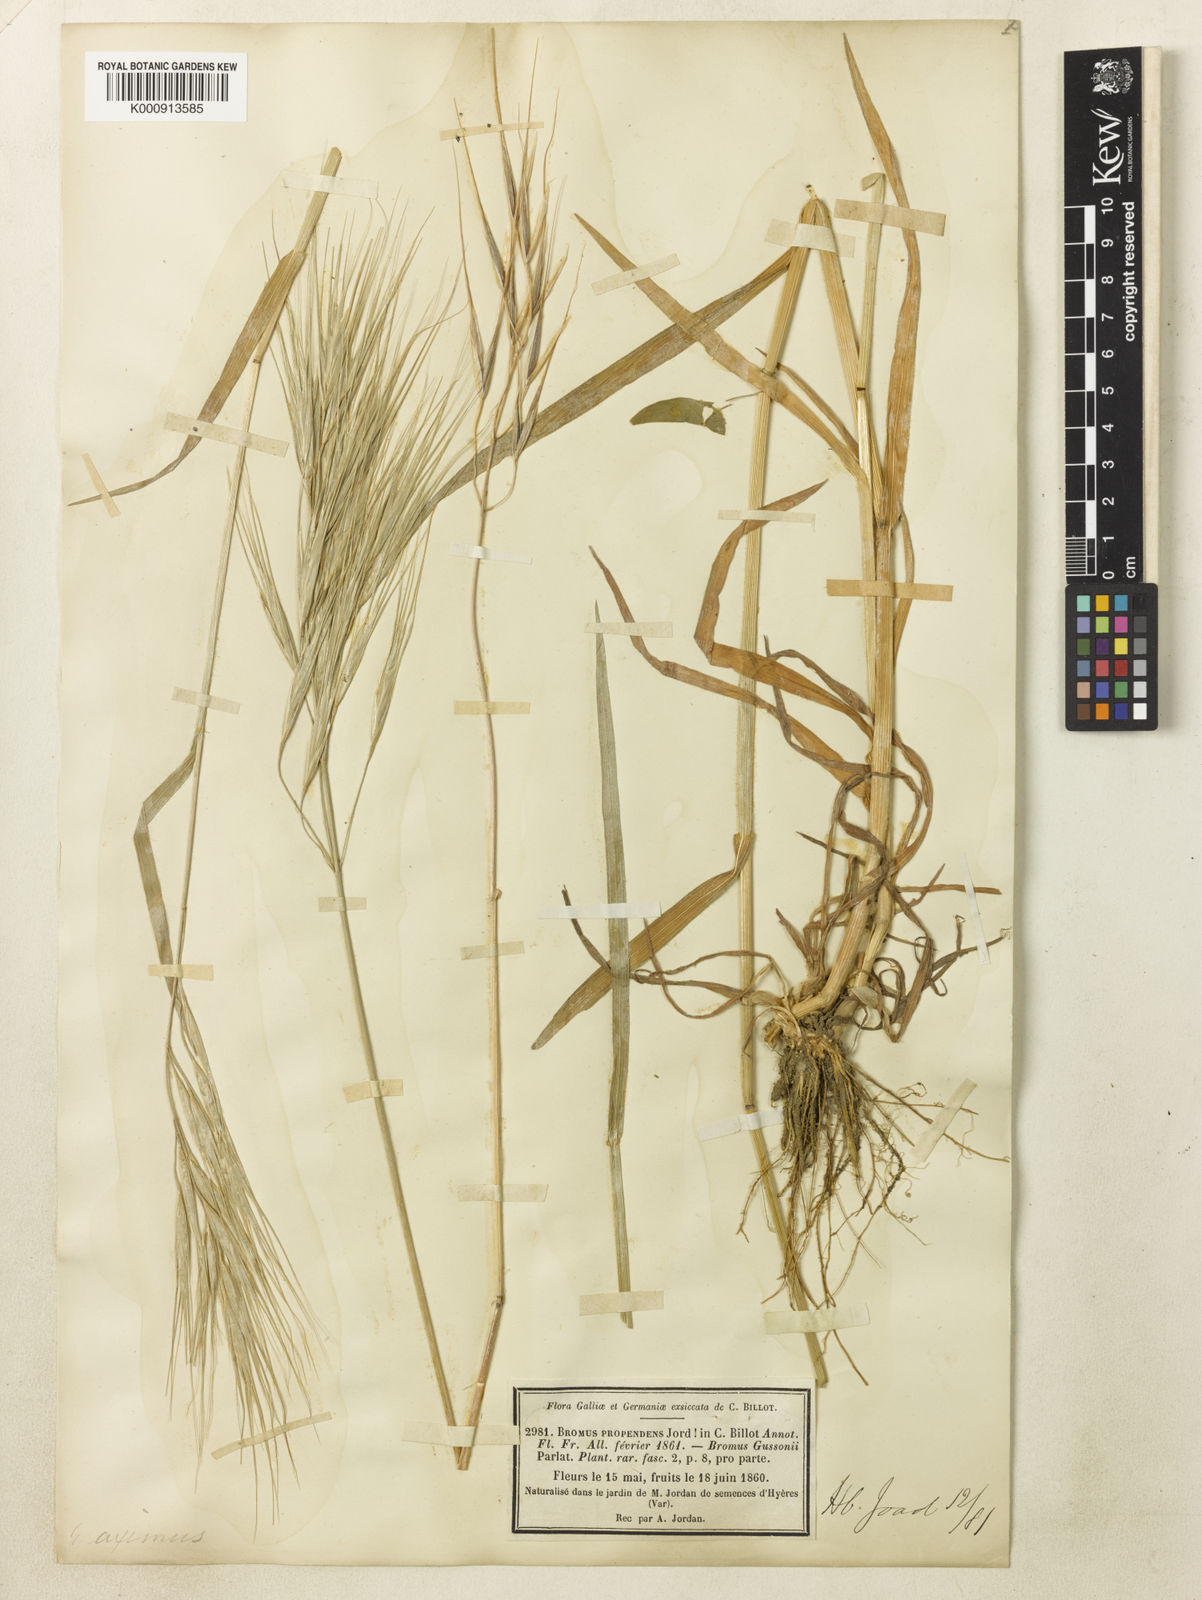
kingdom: Plantae
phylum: Tracheophyta
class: Liliopsida
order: Poales
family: Poaceae
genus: Bromus
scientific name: Bromus diandrus
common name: Ripgut brome
